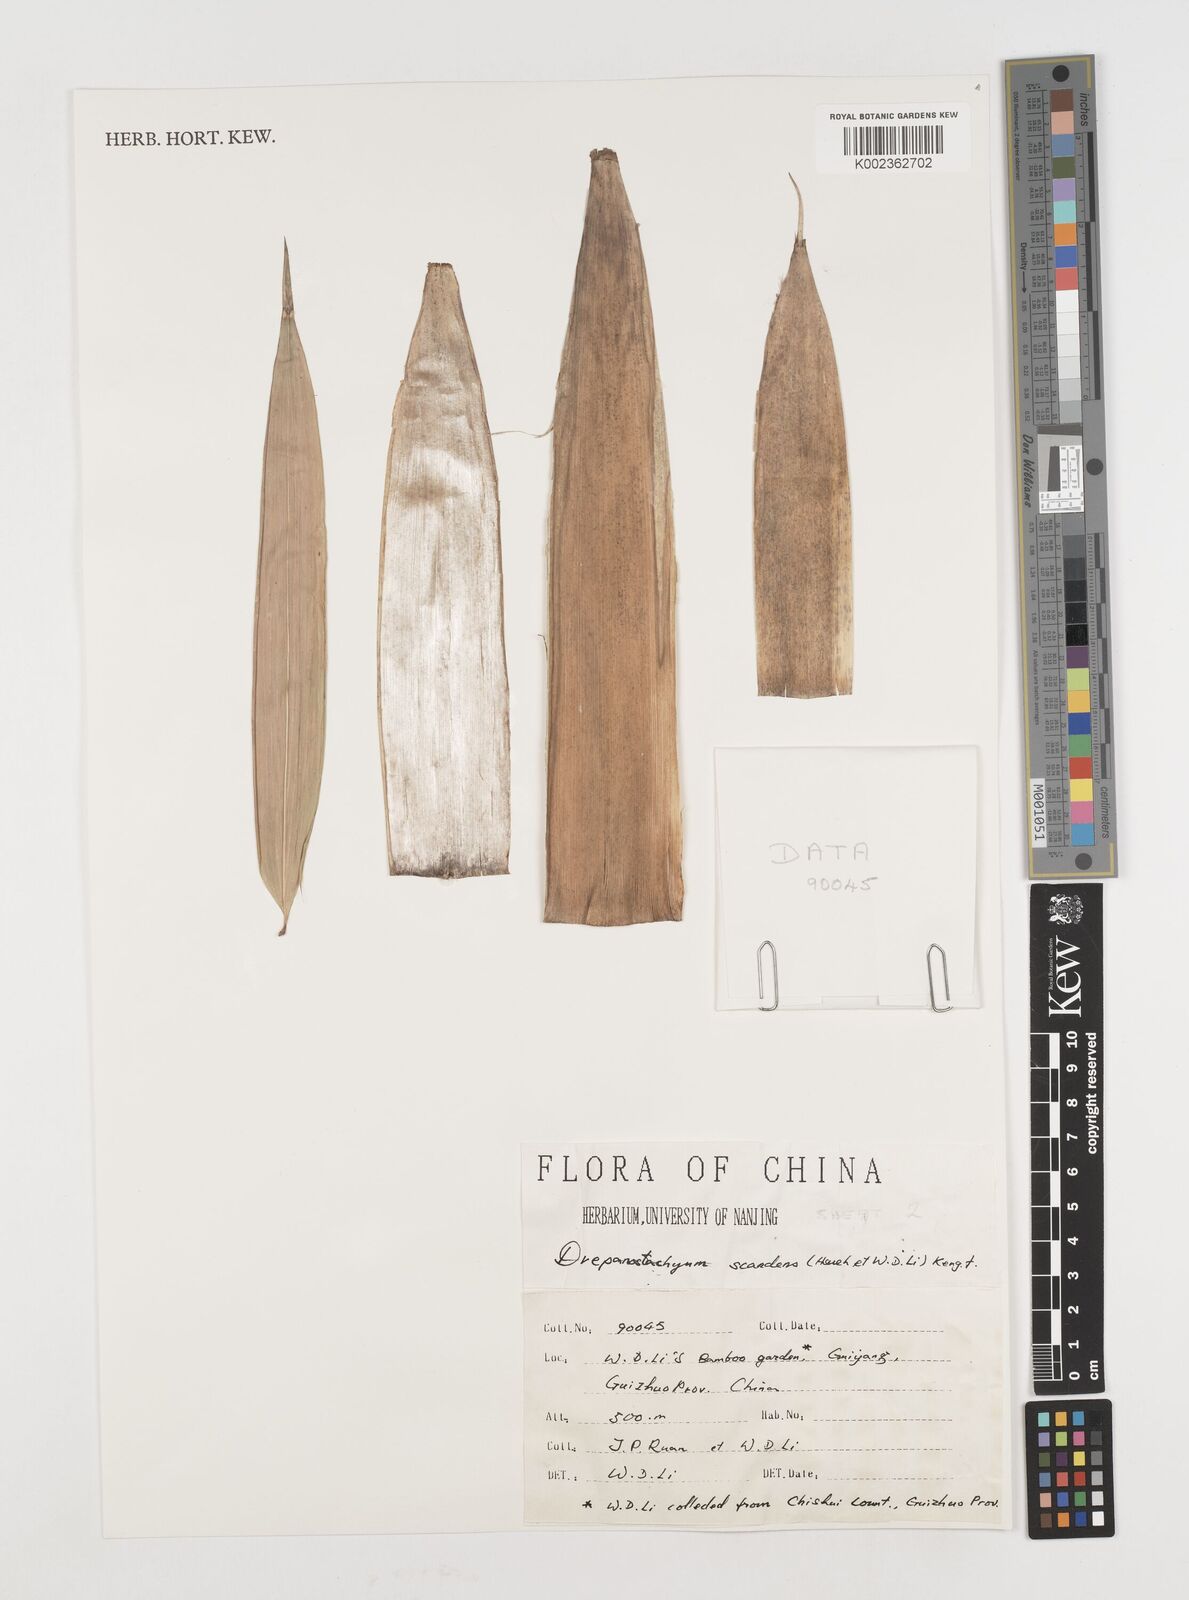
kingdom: Plantae
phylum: Tracheophyta
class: Liliopsida
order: Poales
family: Poaceae
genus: Ampelocalamus
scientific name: Ampelocalamus scandens
